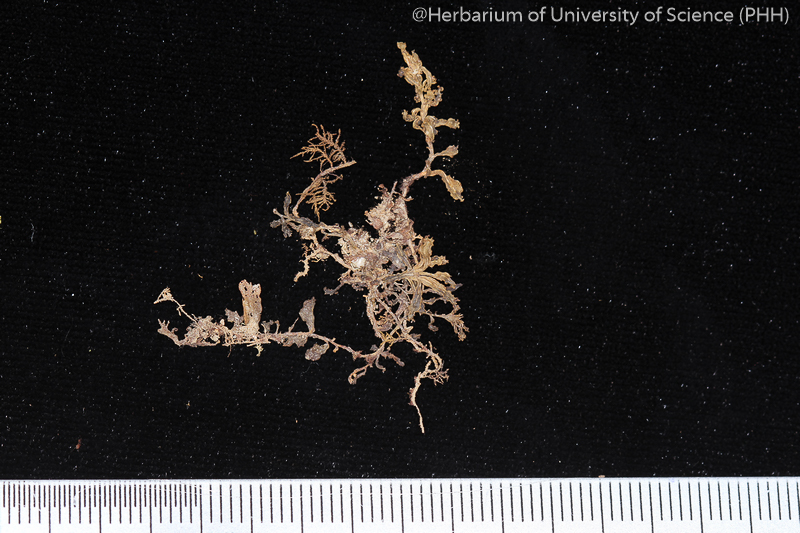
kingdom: Plantae
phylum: Bryophyta
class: Bryopsida
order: Bryales
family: Mniaceae
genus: Plagiomnium
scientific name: Plagiomnium succulentum
